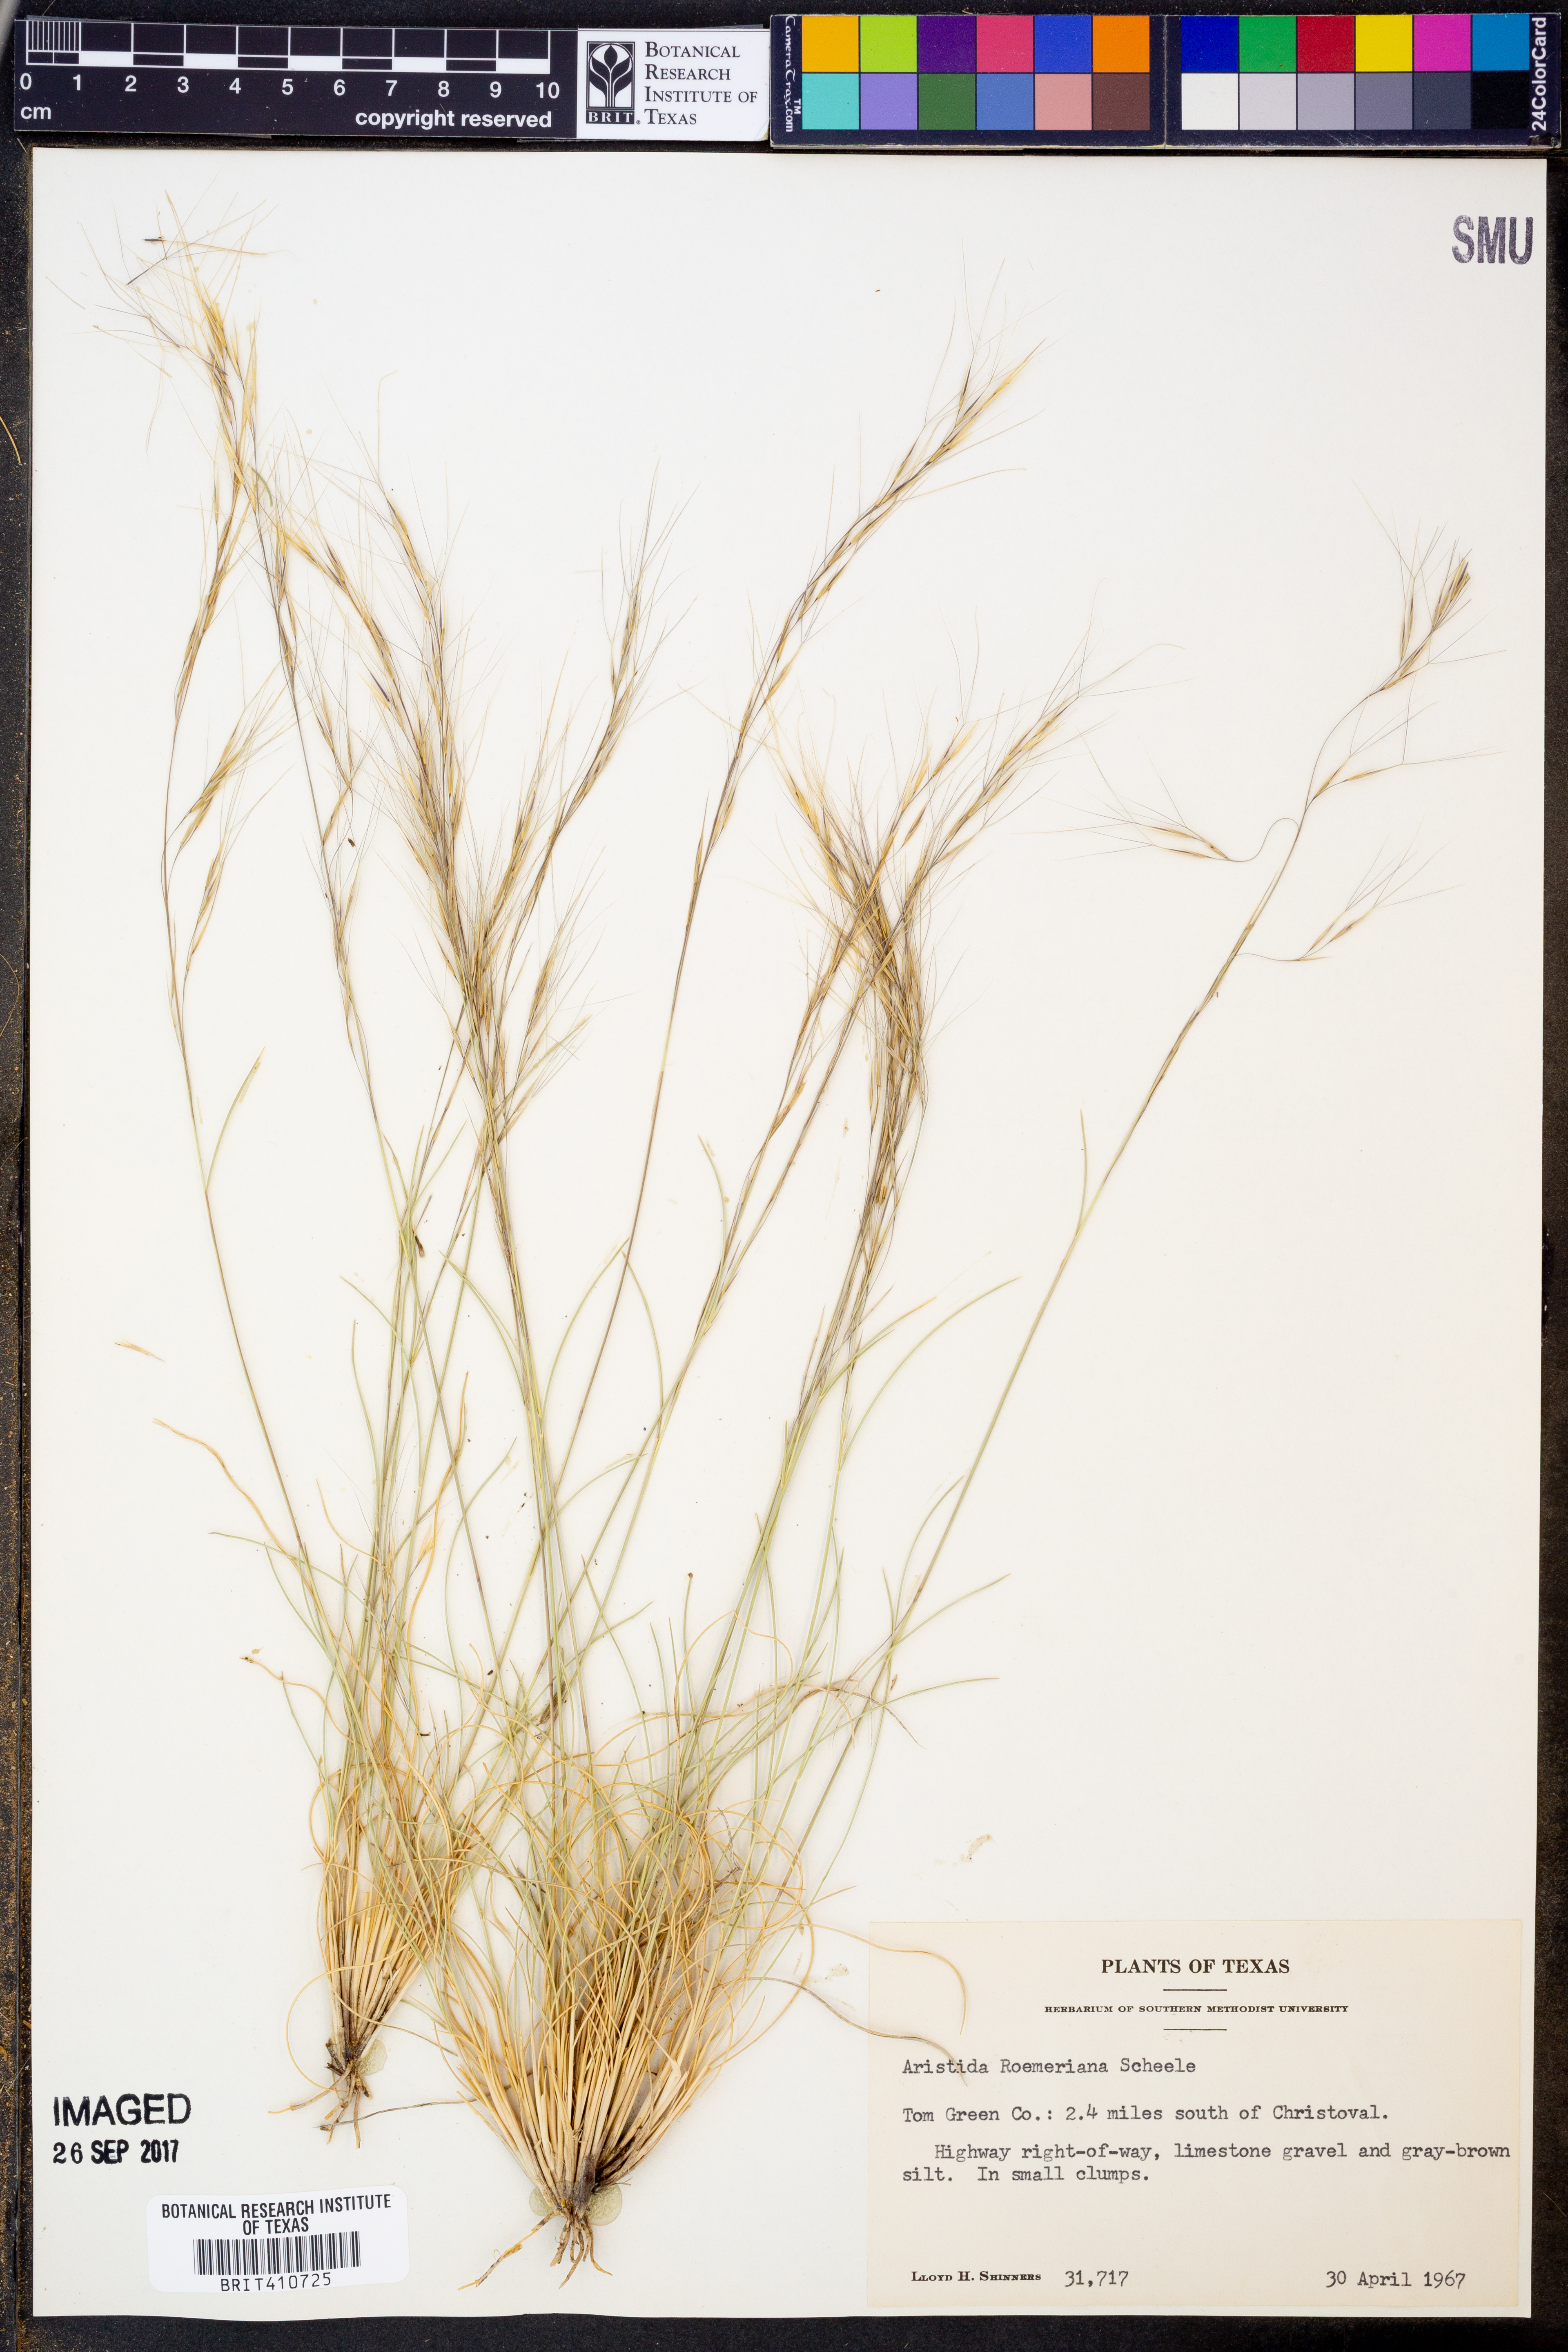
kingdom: Plantae
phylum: Tracheophyta
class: Liliopsida
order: Poales
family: Poaceae
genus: Aristida
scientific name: Aristida purpurea
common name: Purple threeawn
